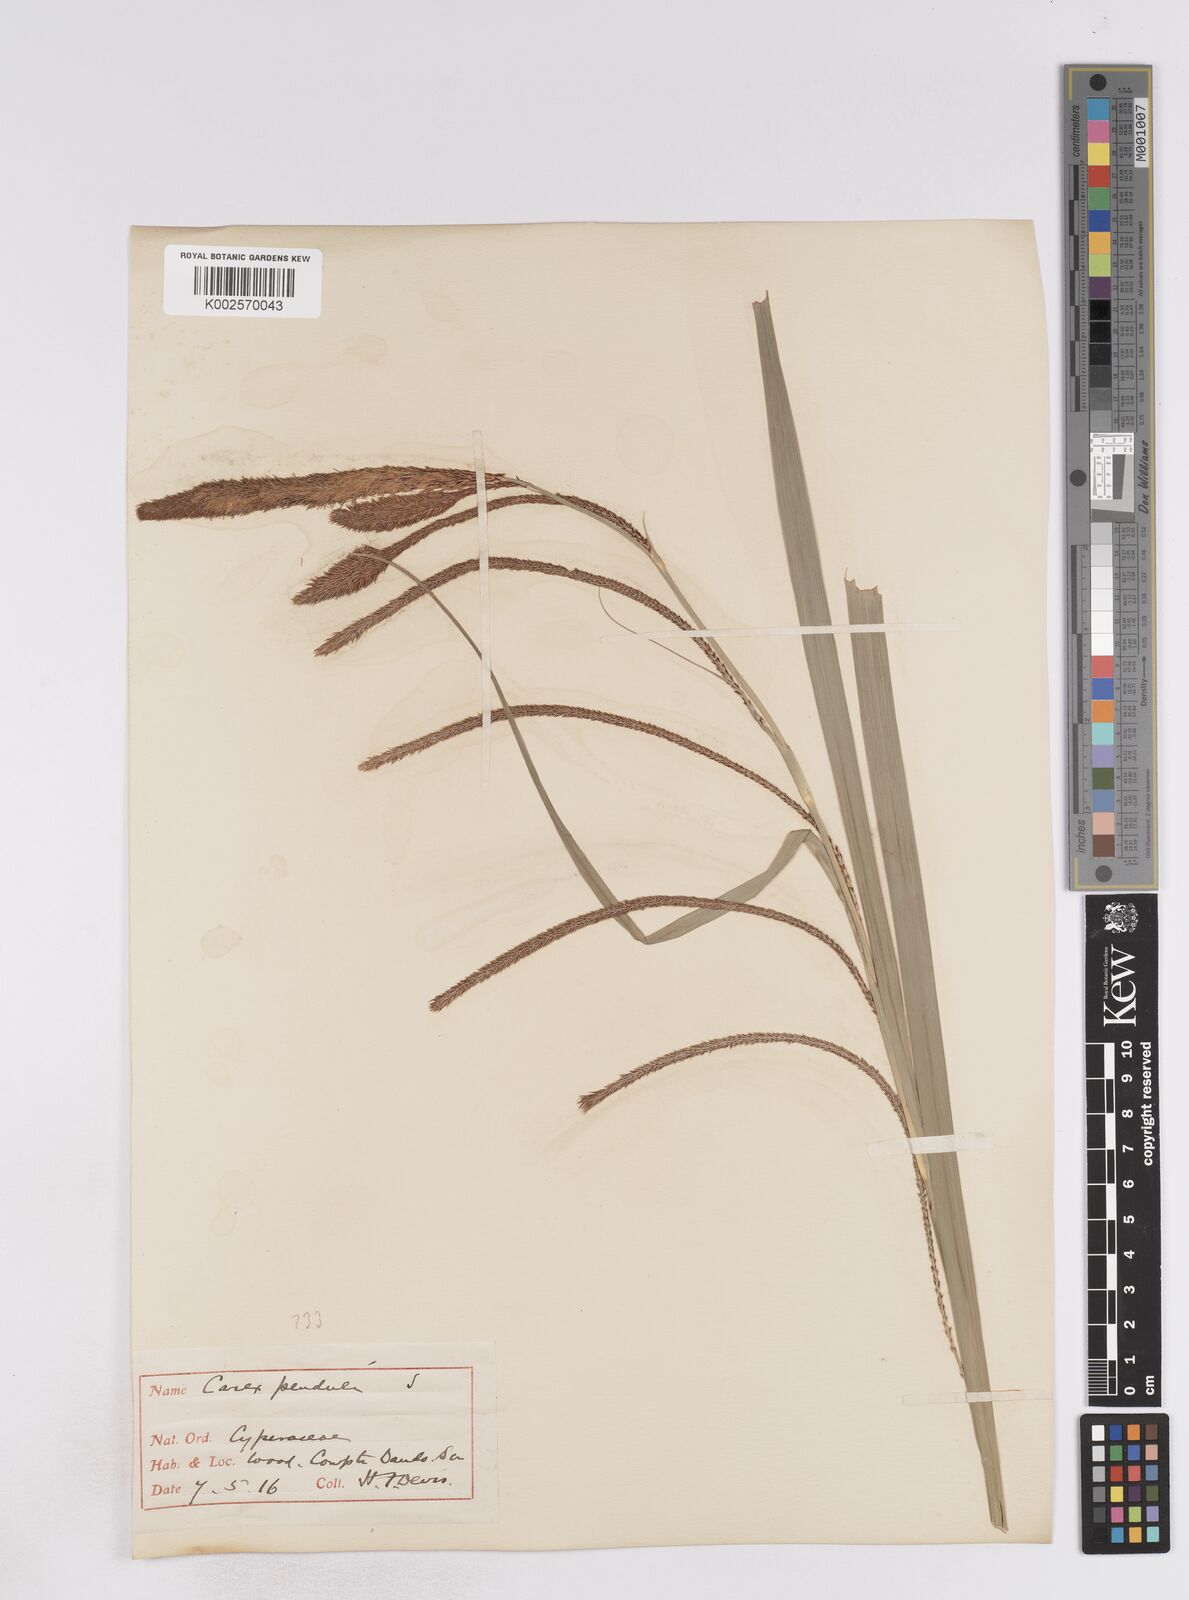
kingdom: Plantae
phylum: Tracheophyta
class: Liliopsida
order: Poales
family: Cyperaceae
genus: Carex
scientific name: Carex pendula
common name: Pendulous sedge
